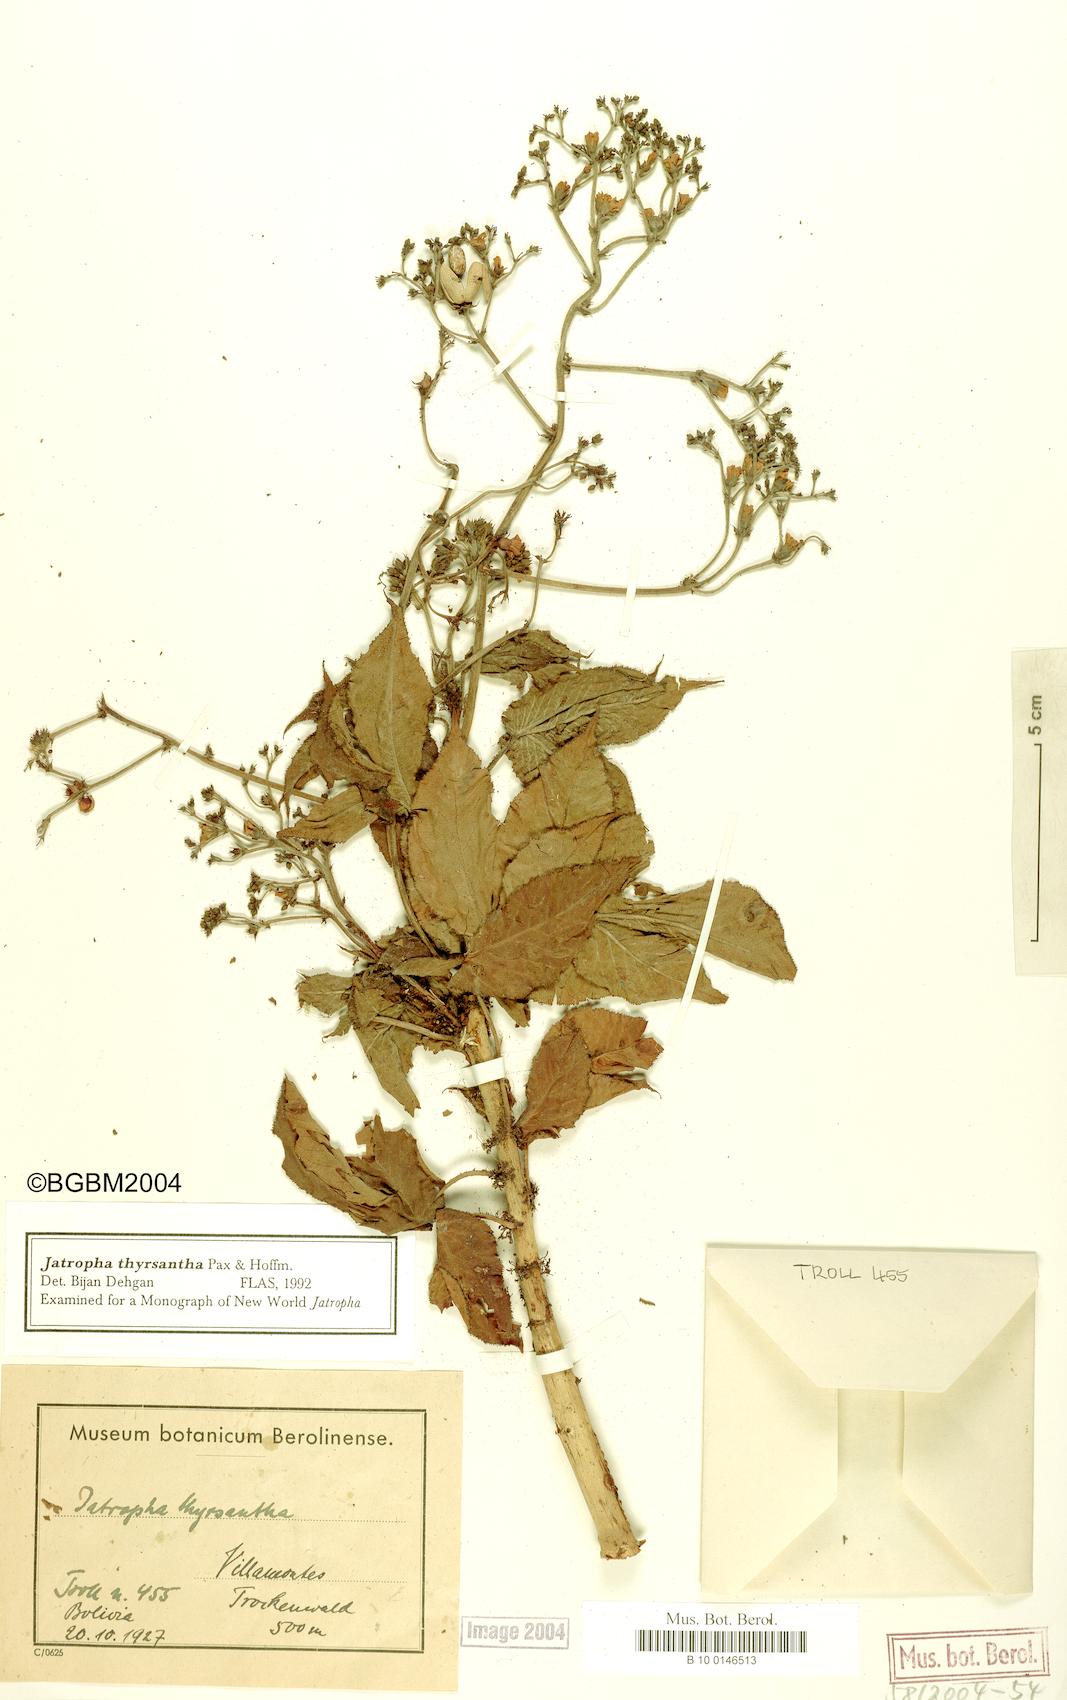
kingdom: Plantae
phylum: Tracheophyta
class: Magnoliopsida
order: Malpighiales
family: Euphorbiaceae
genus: Jatropha
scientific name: Jatropha excisa
